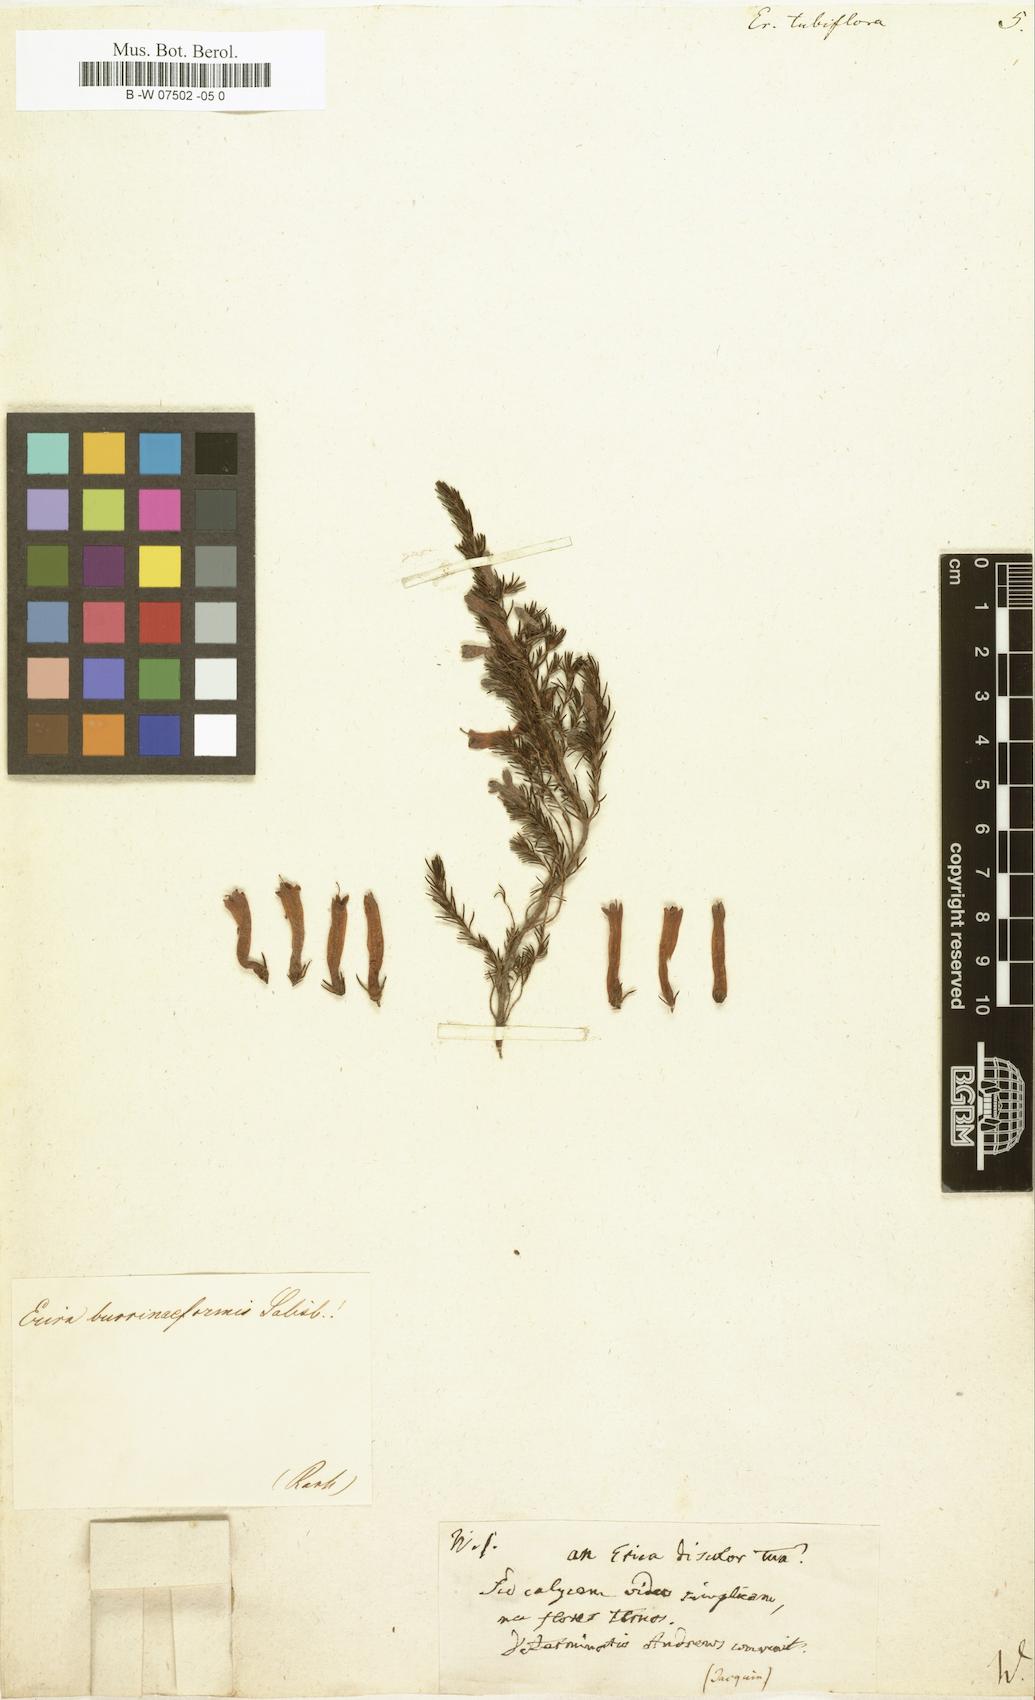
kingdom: Plantae
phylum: Tracheophyta
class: Magnoliopsida
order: Ericales
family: Ericaceae
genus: Erica
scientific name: Erica curviflora
